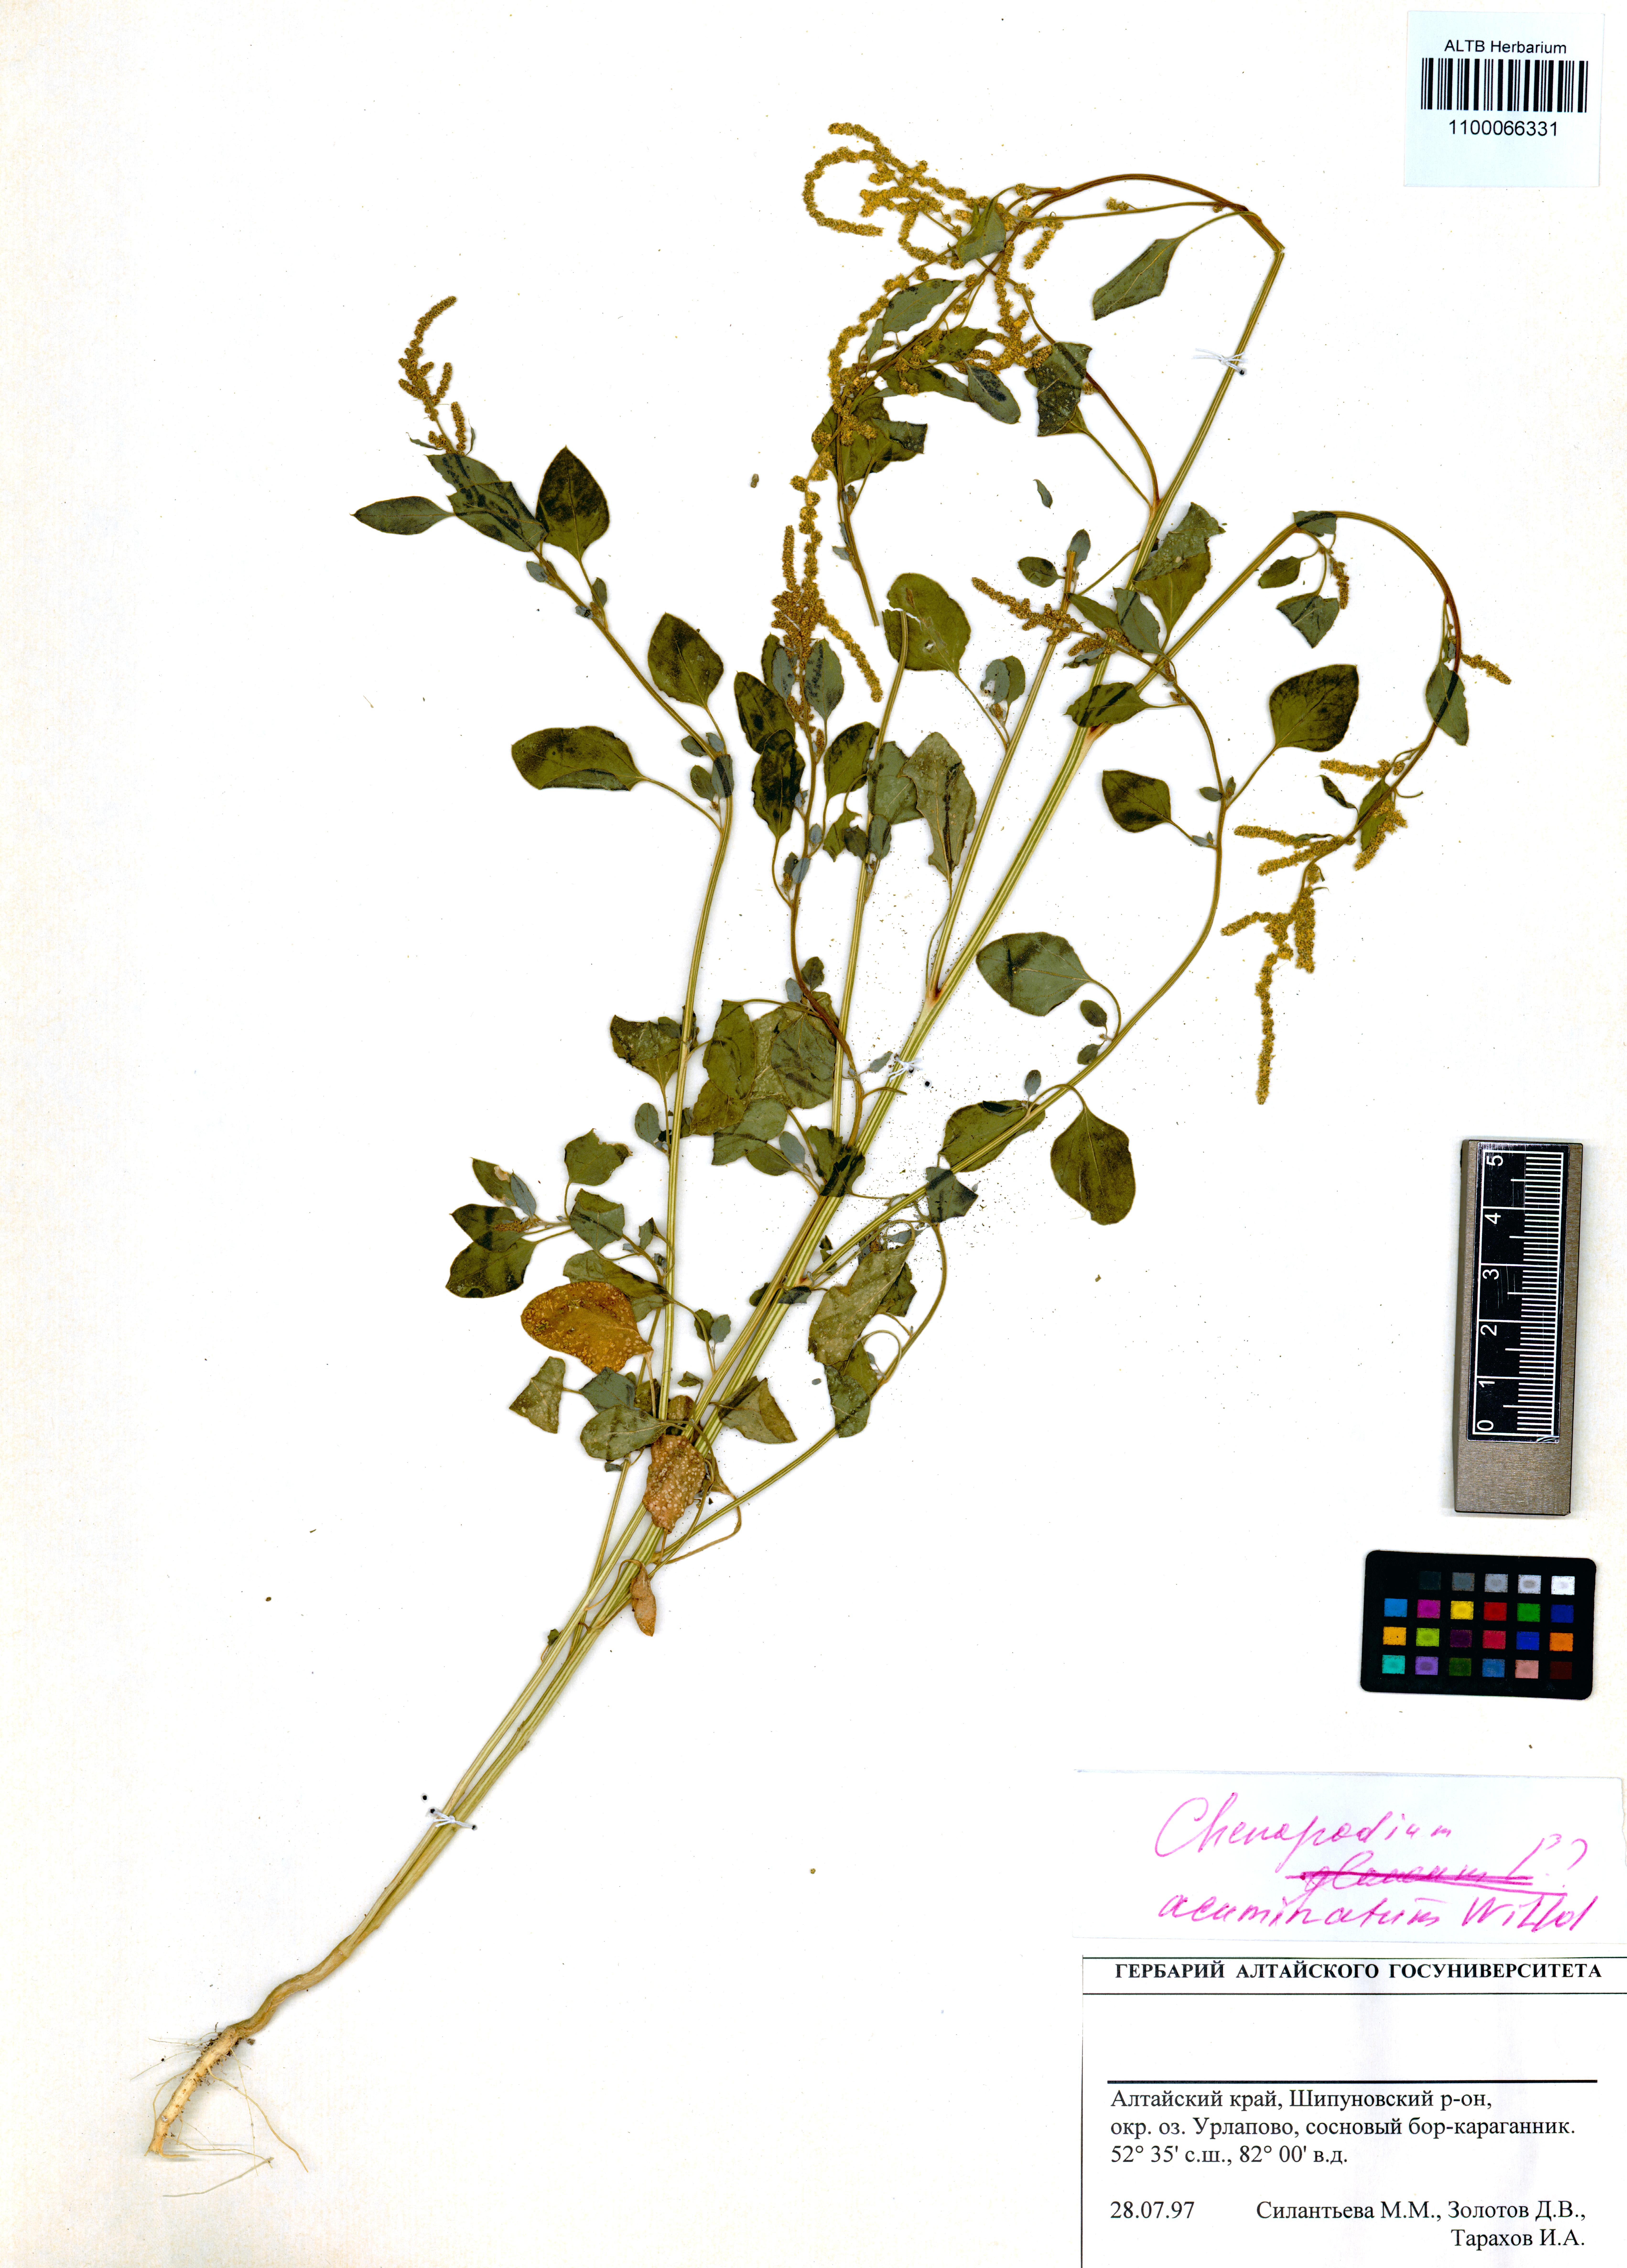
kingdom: Plantae
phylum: Tracheophyta
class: Magnoliopsida
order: Caryophyllales
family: Amaranthaceae
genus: Chenopodium
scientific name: Chenopodium acuminatum
